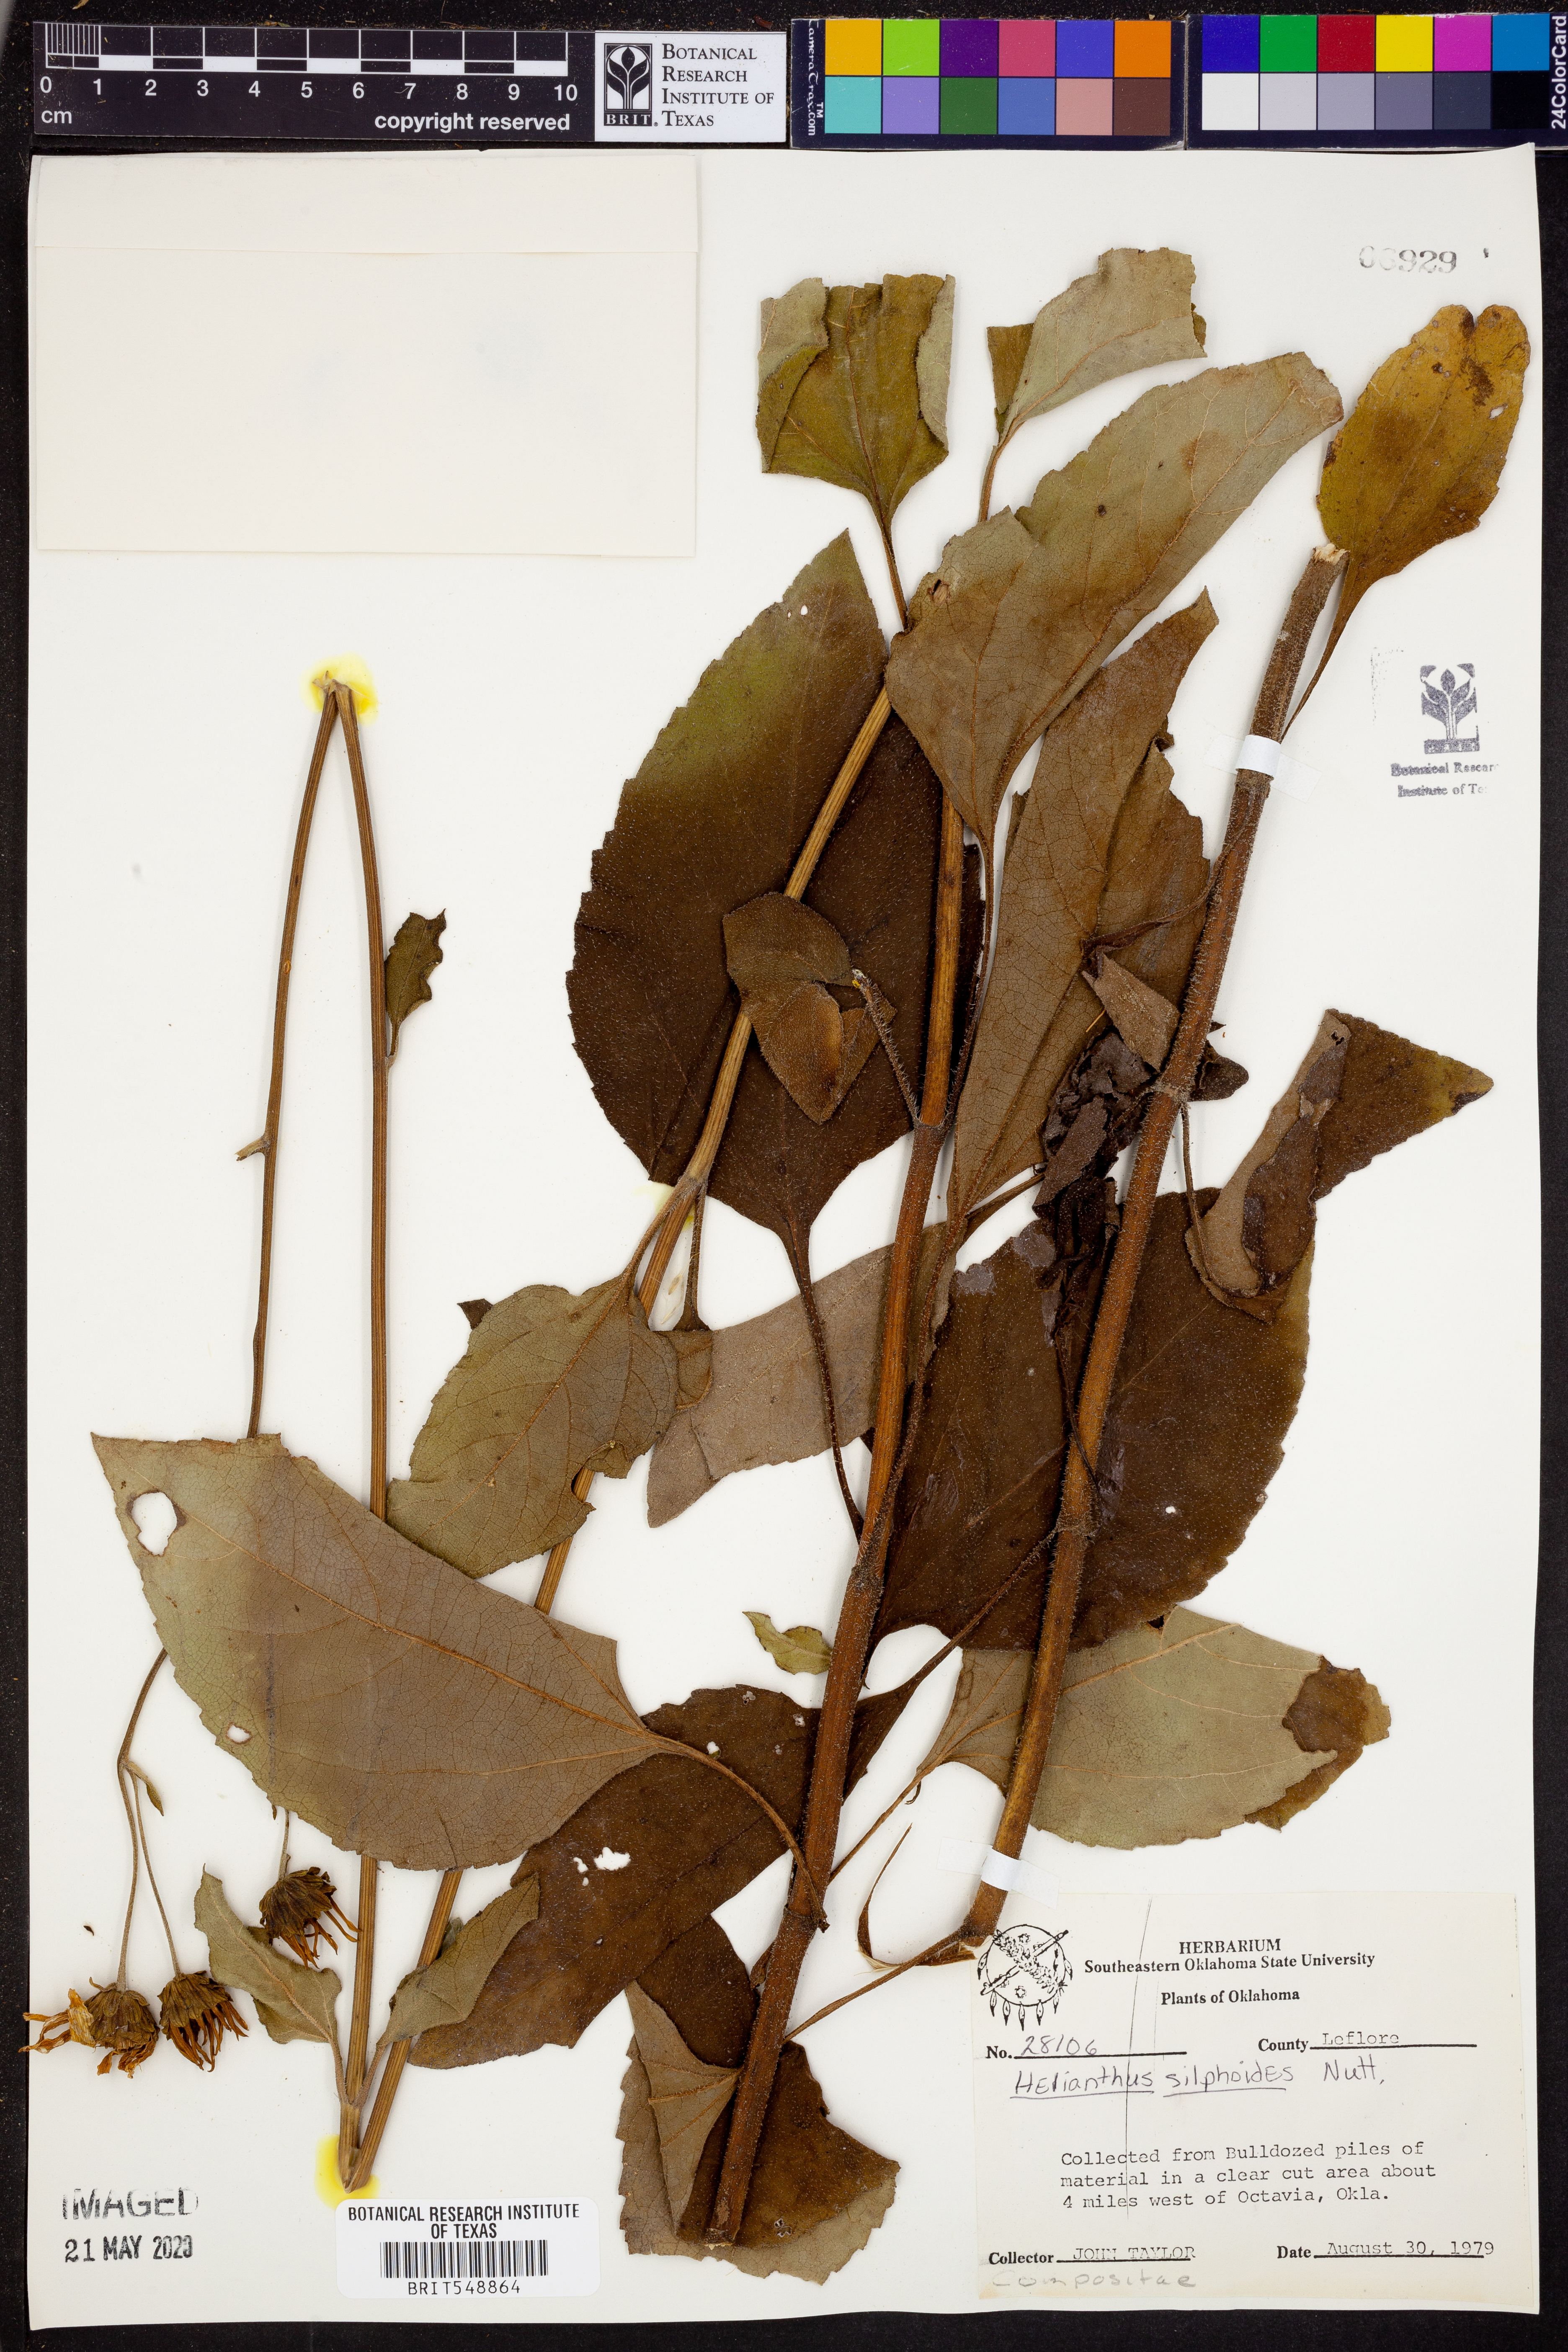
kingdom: Plantae
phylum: Tracheophyta
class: Magnoliopsida
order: Asterales
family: Asteraceae
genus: Helianthus
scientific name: Helianthus silphioides
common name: Odorous sunflower
